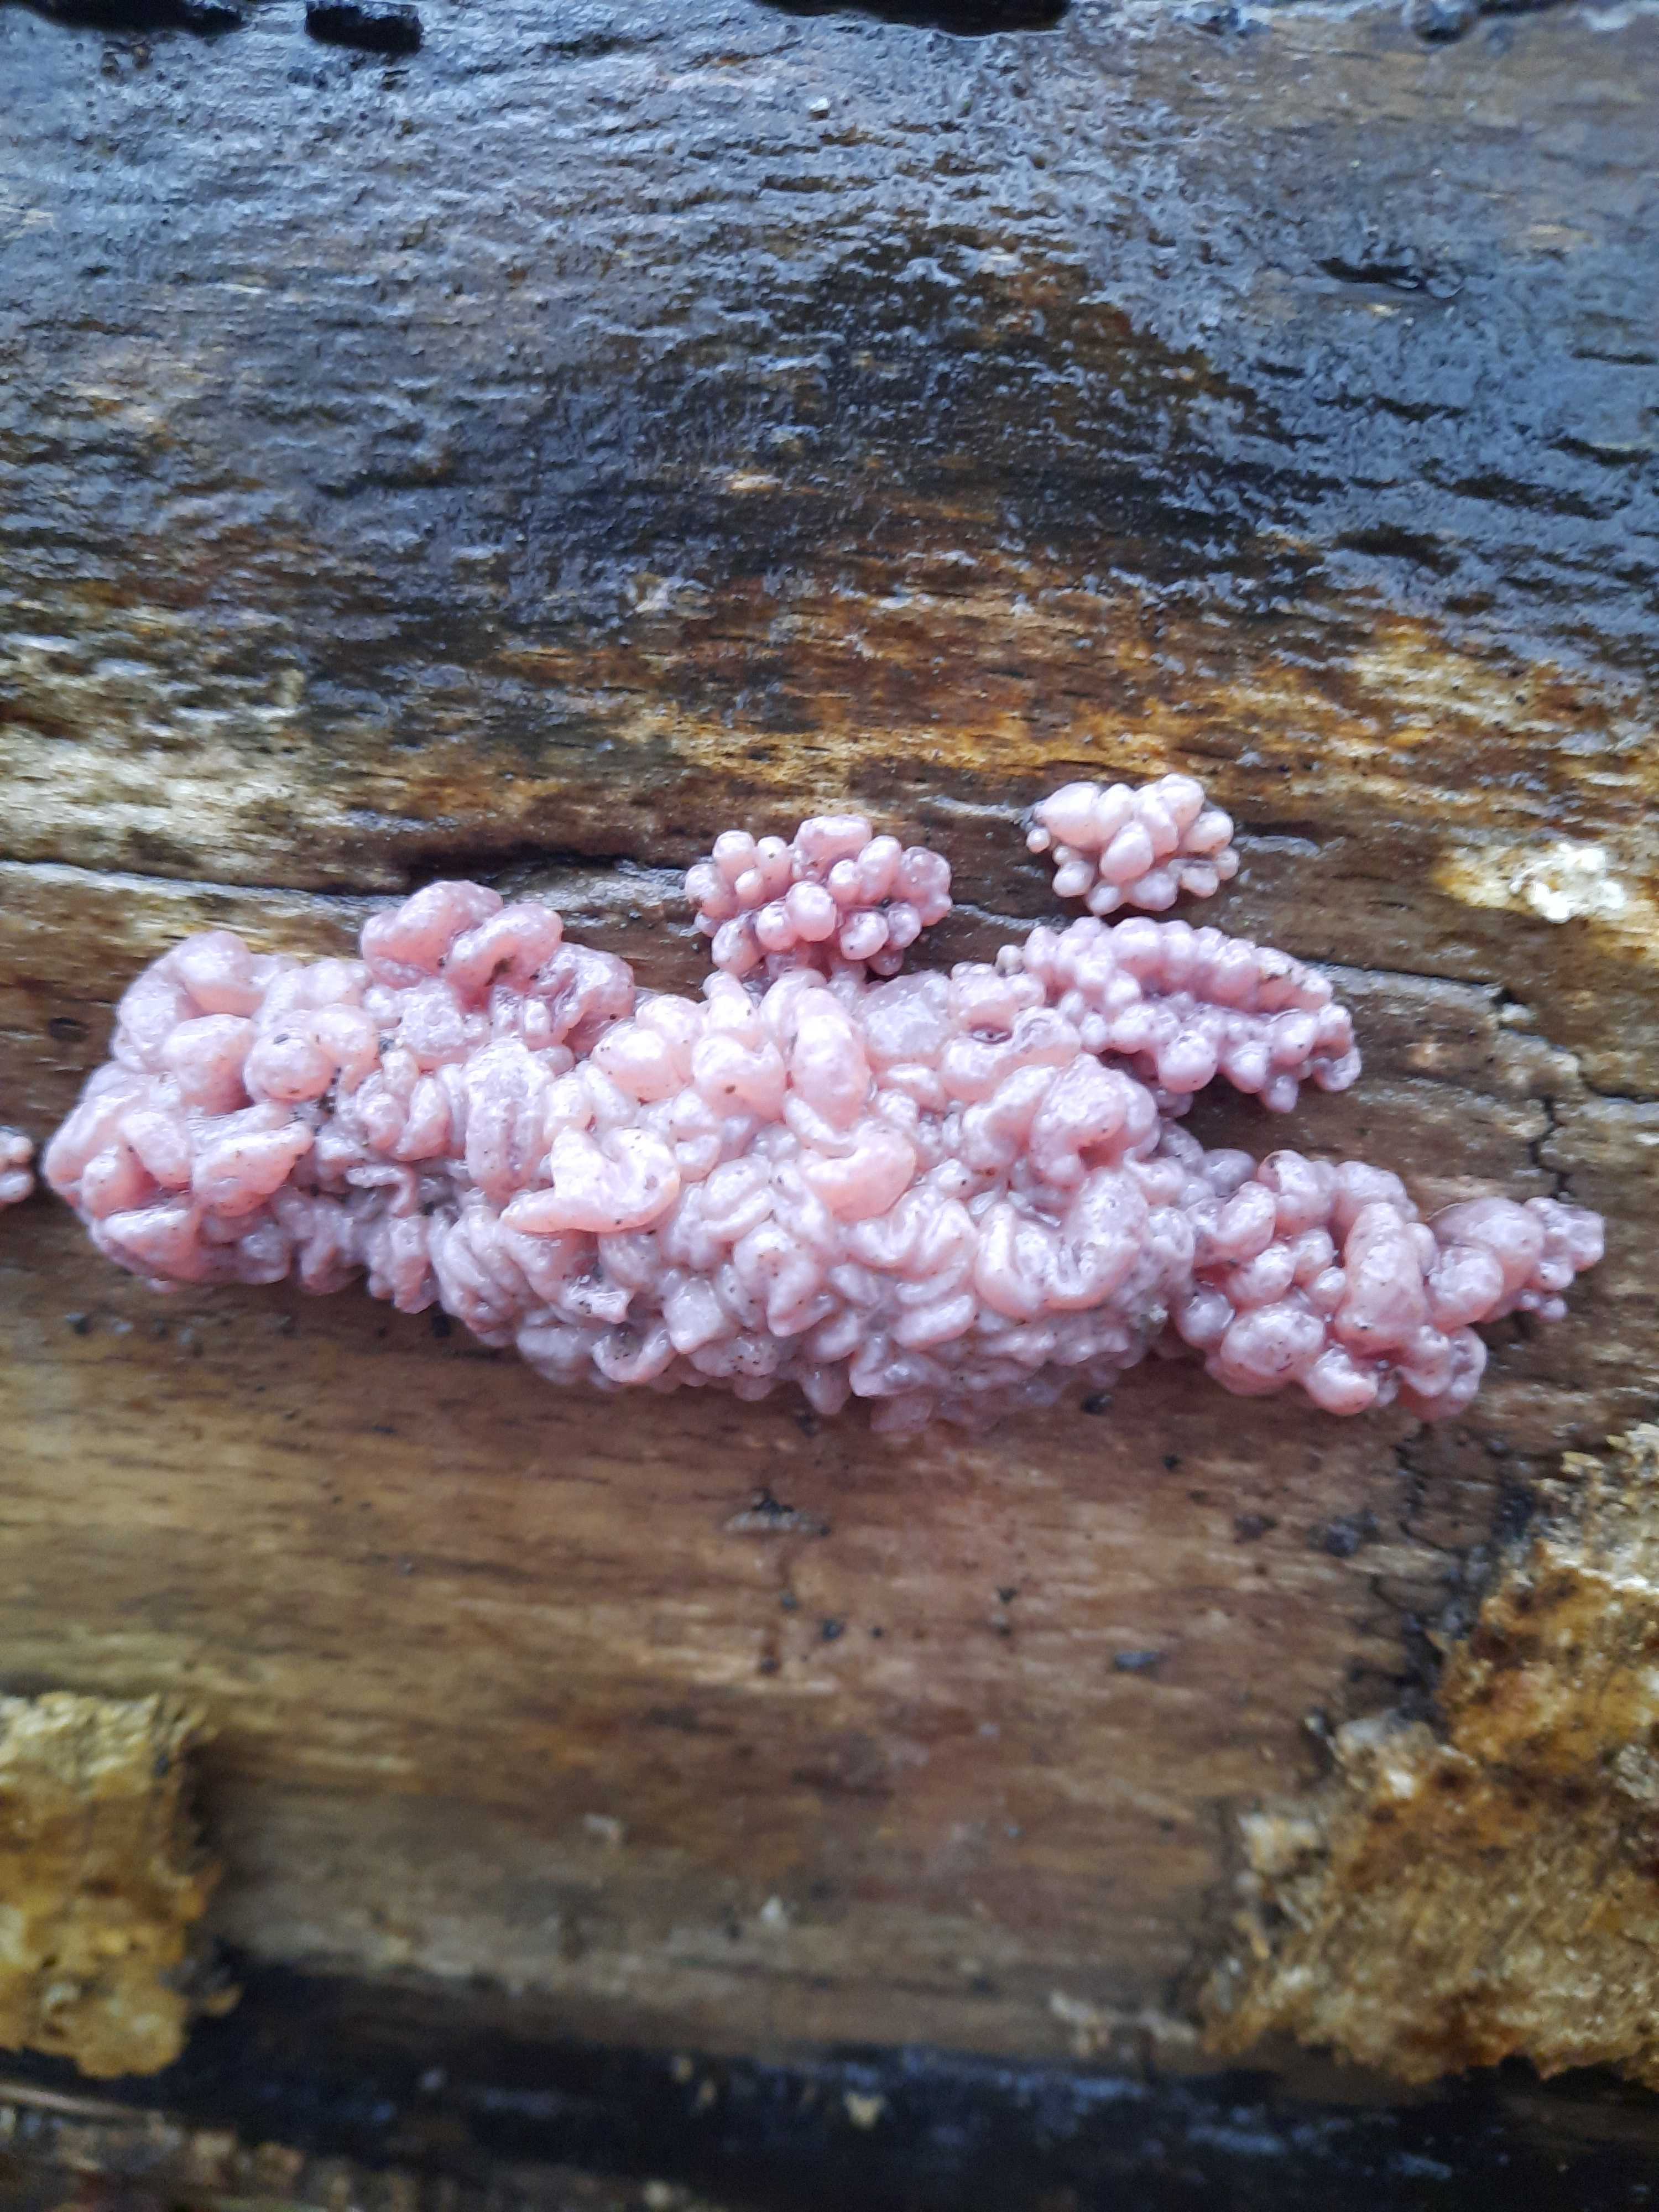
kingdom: Fungi
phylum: Ascomycota
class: Leotiomycetes
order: Helotiales
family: Gelatinodiscaceae
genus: Ascocoryne
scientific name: Ascocoryne sarcoides
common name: rødlilla sejskive
